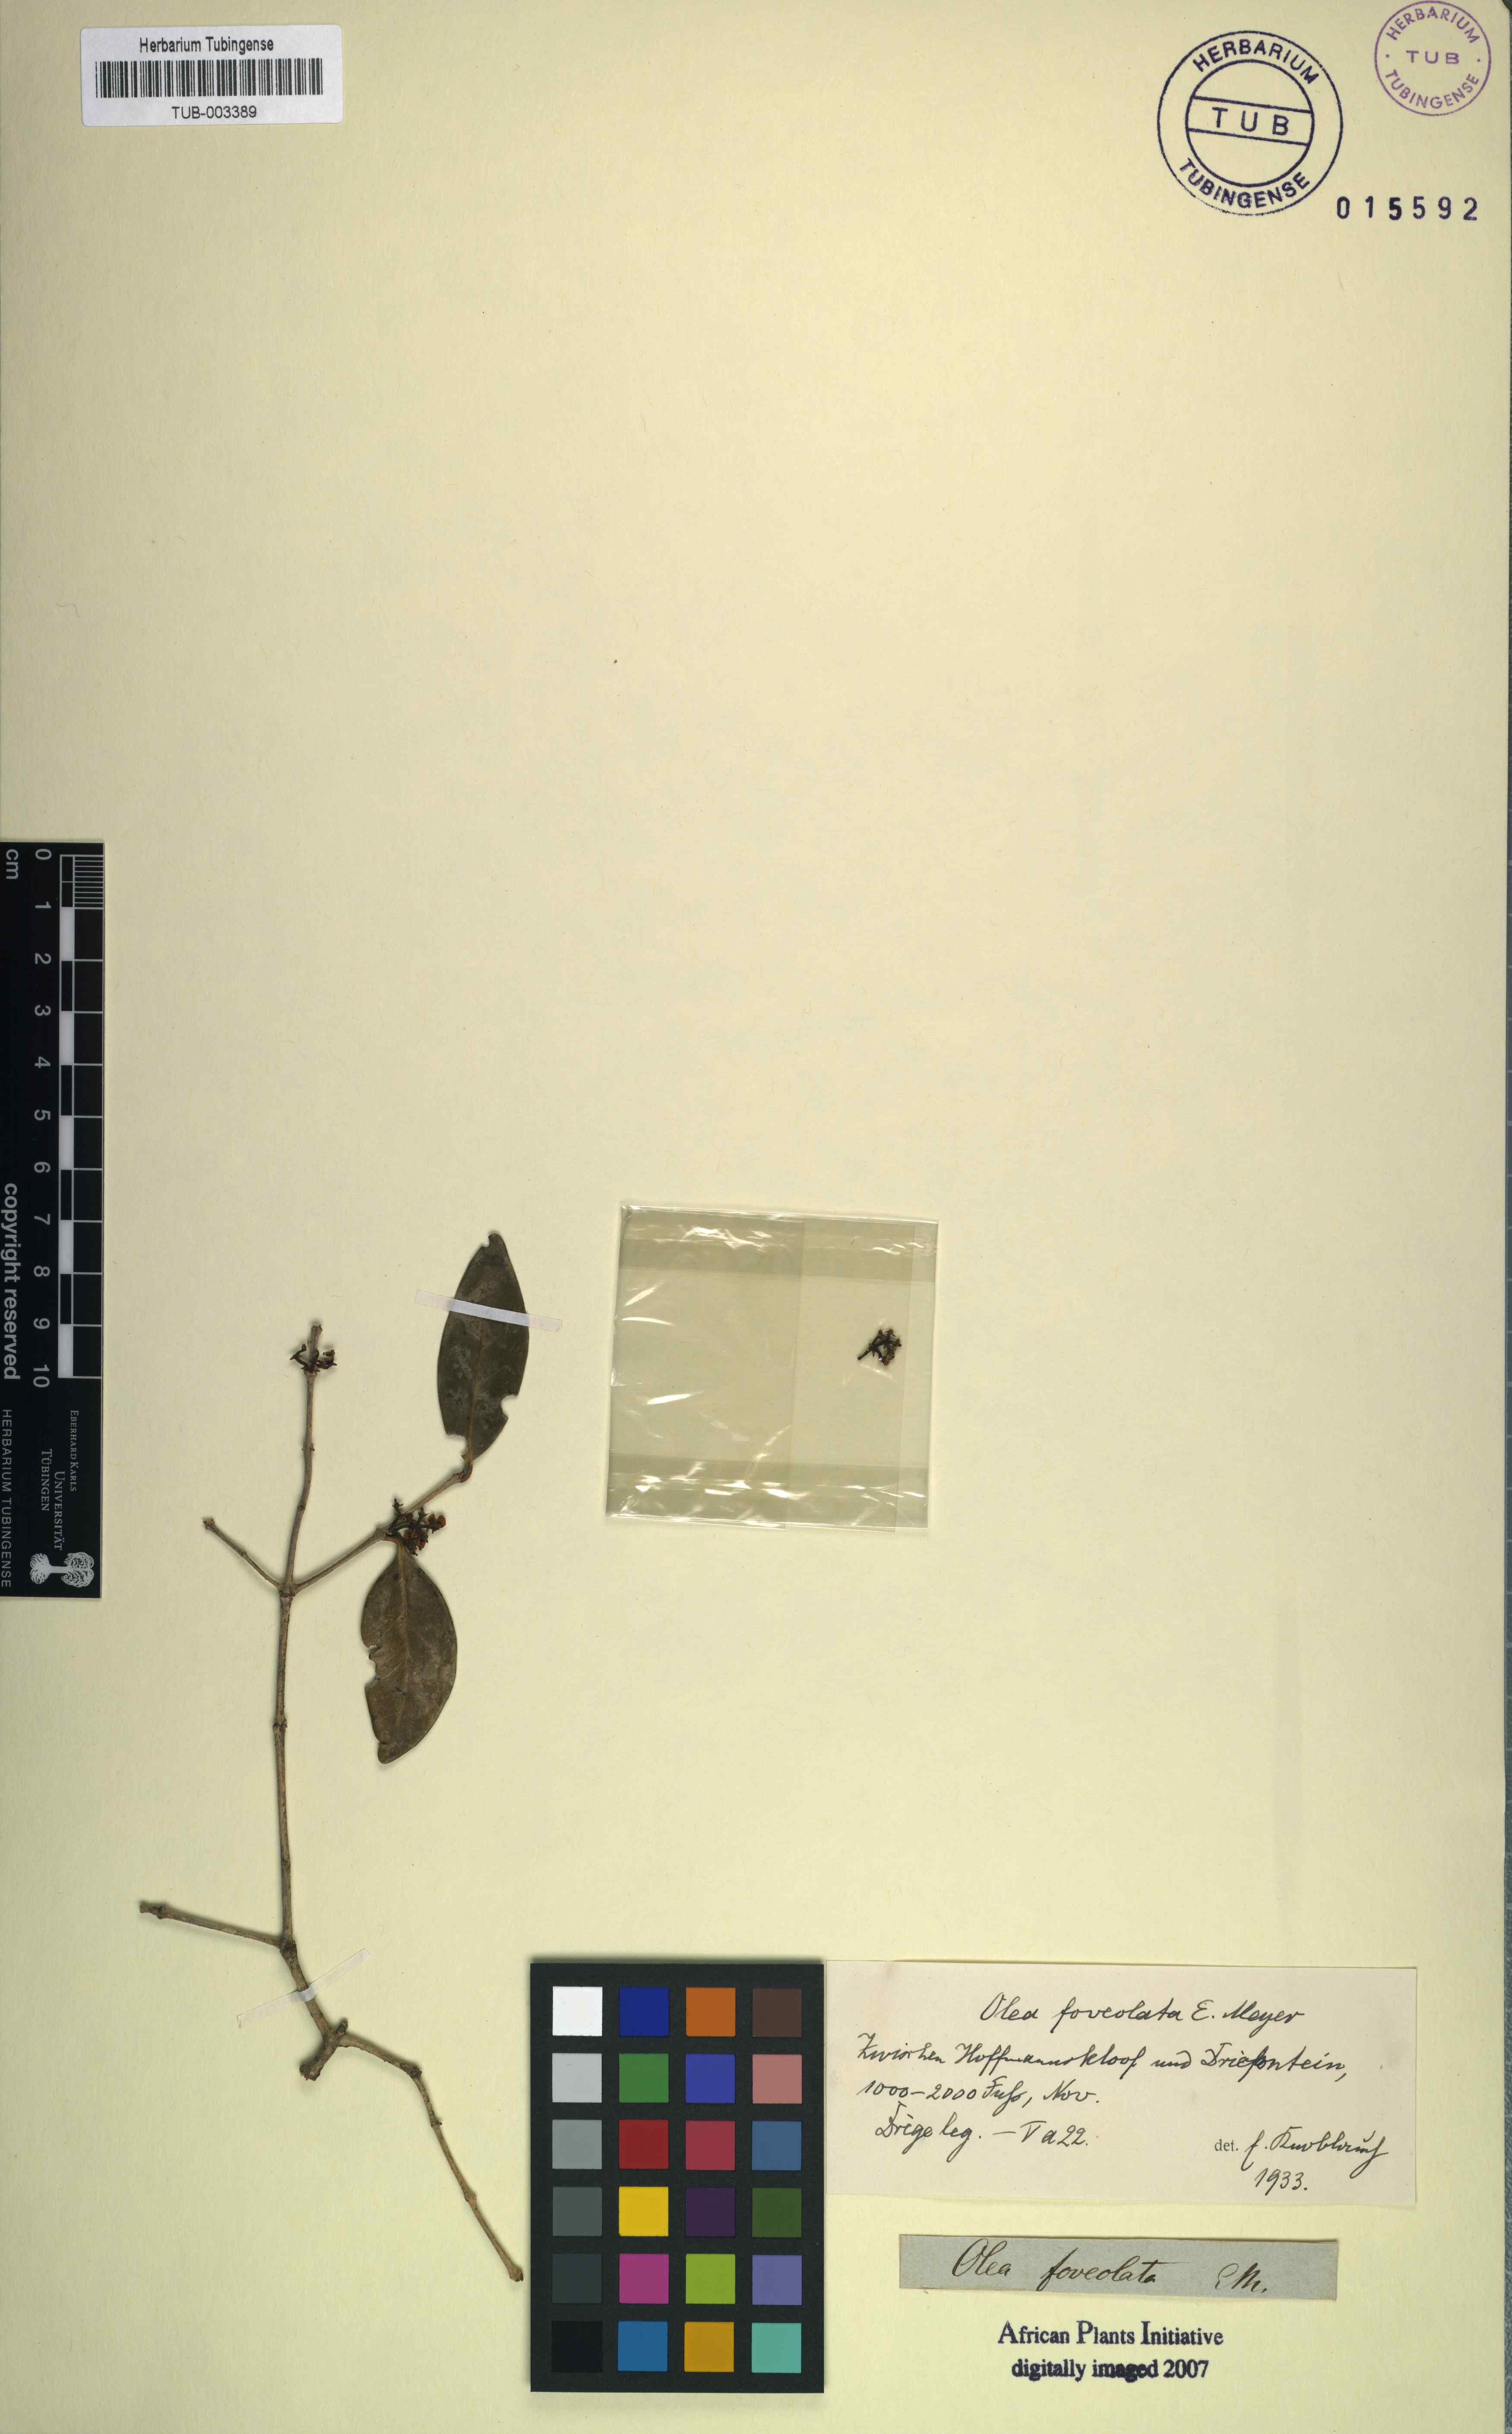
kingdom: Plantae
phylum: Tracheophyta
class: Magnoliopsida
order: Lamiales
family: Oleaceae
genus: Noronhia
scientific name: Noronhia foveolata
